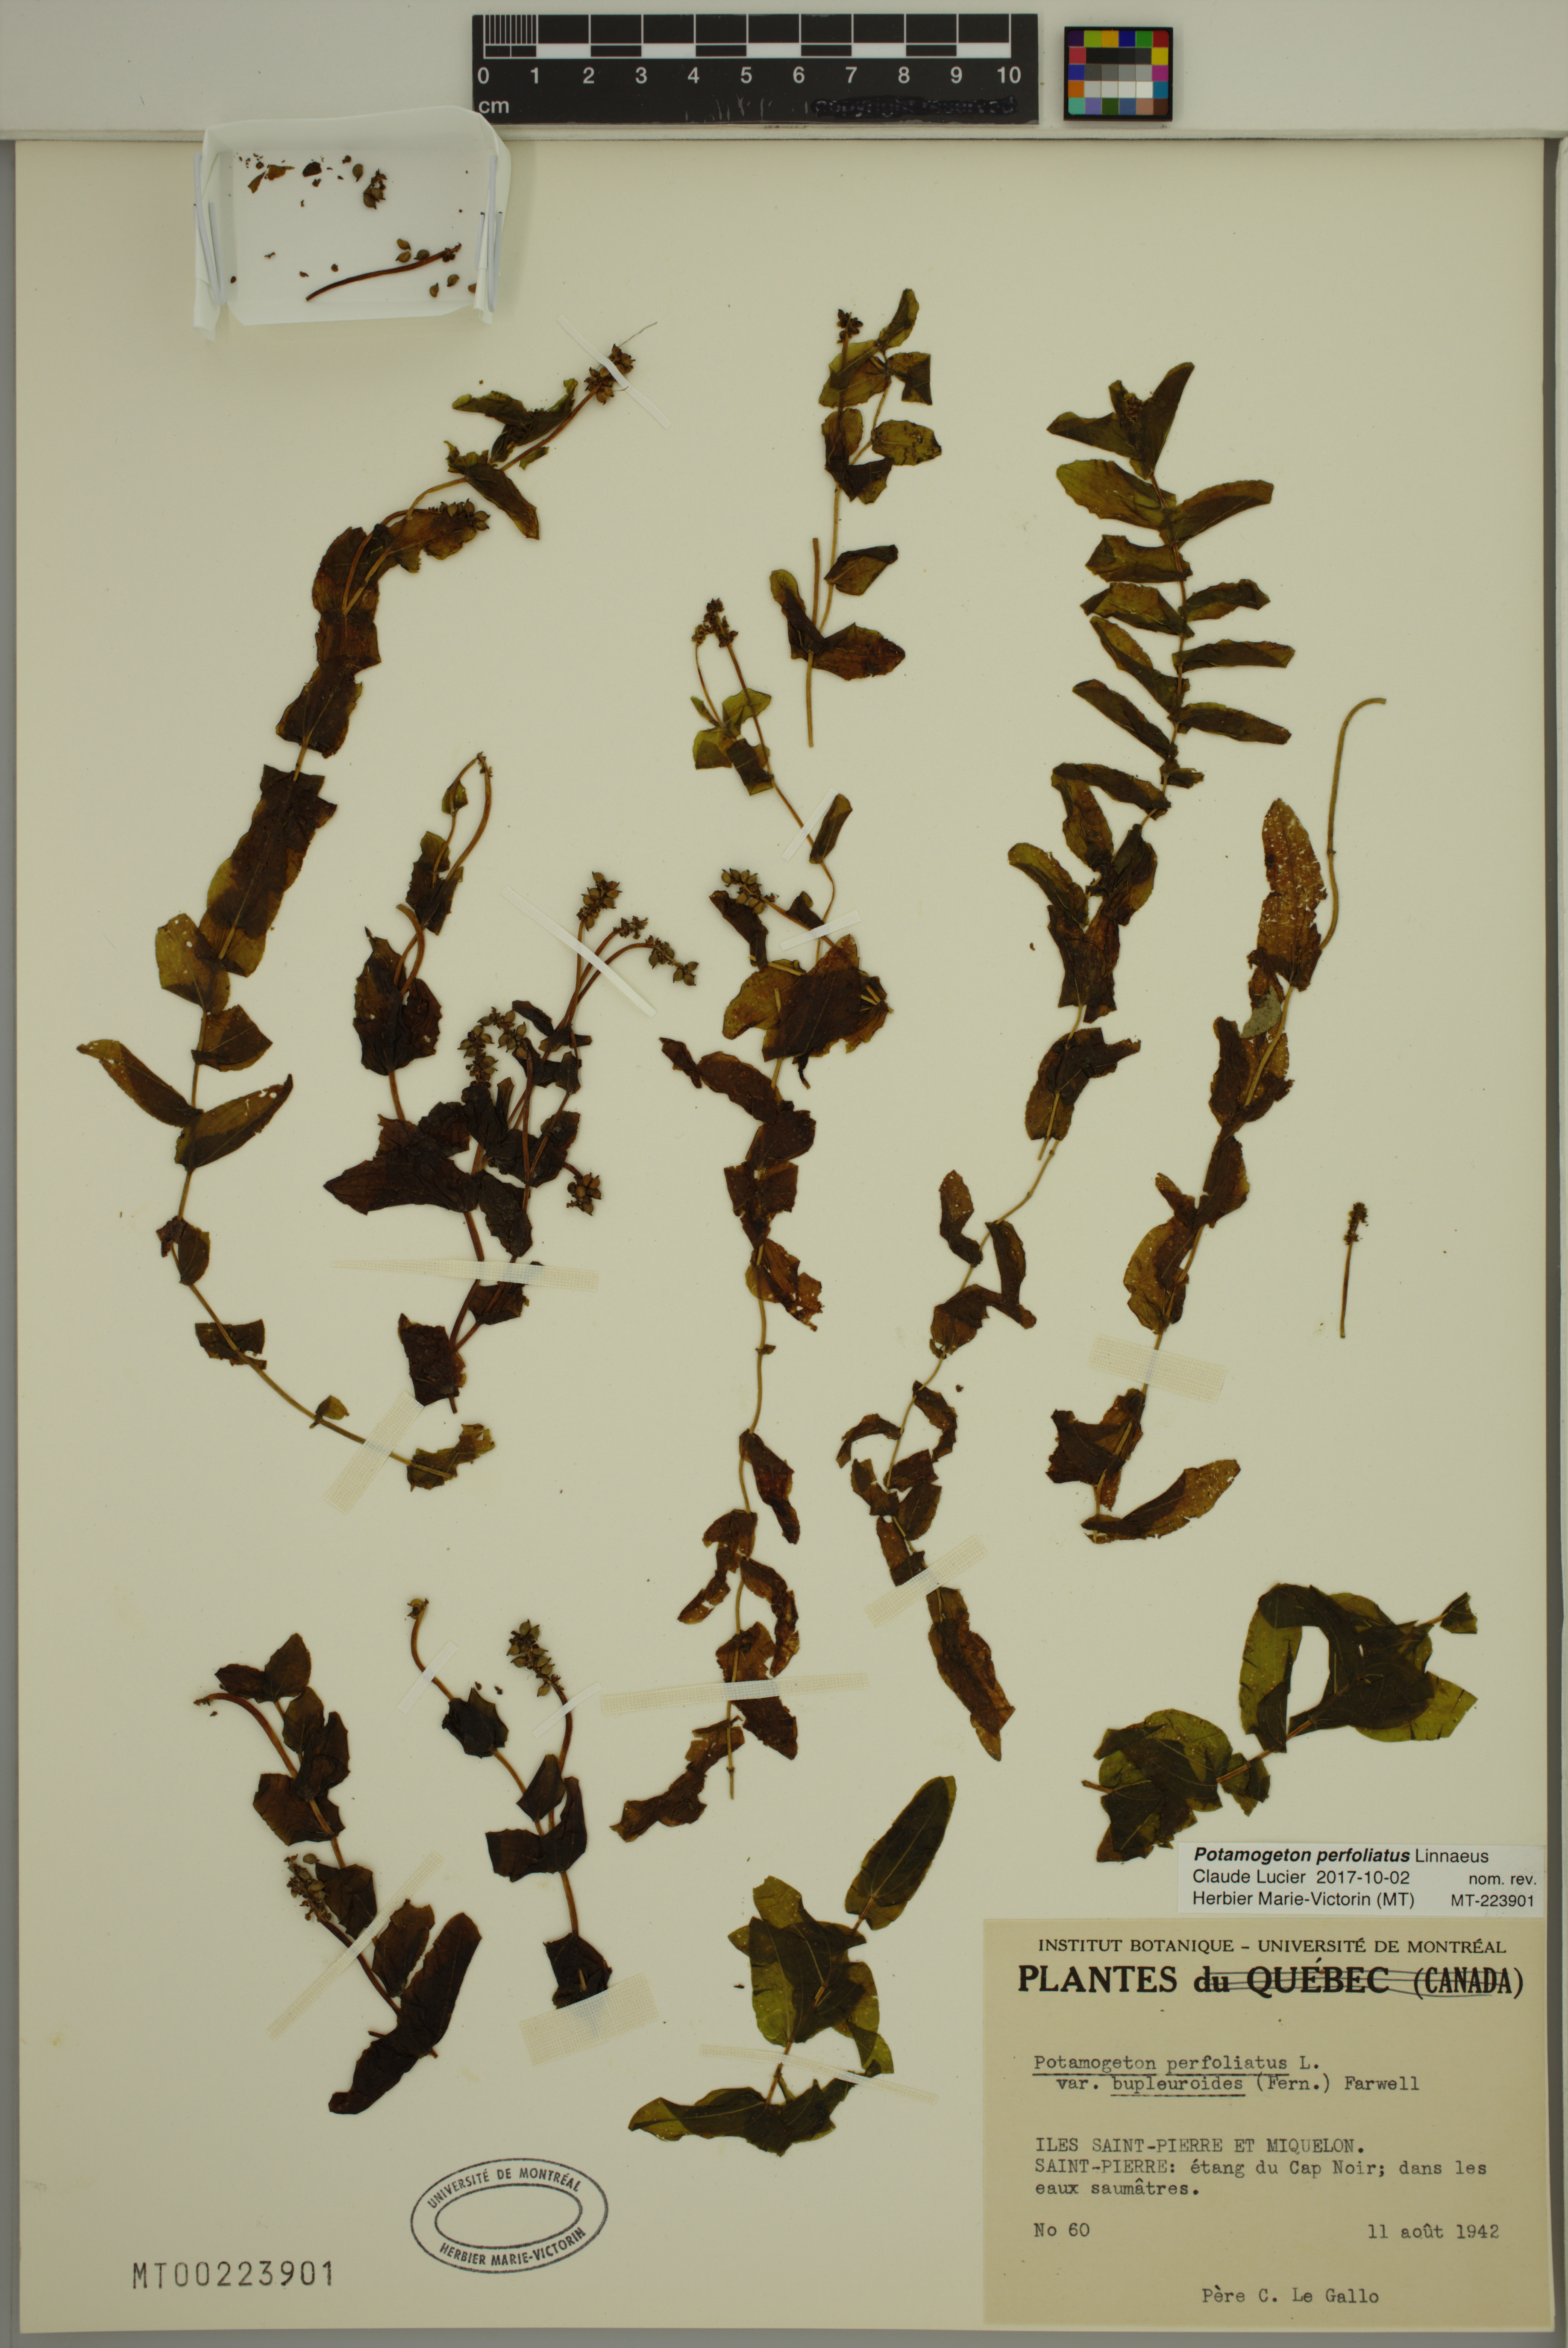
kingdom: Plantae
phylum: Tracheophyta
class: Liliopsida
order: Alismatales
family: Potamogetonaceae
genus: Potamogeton
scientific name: Potamogeton perfoliatus
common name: Perfoliate pondweed
